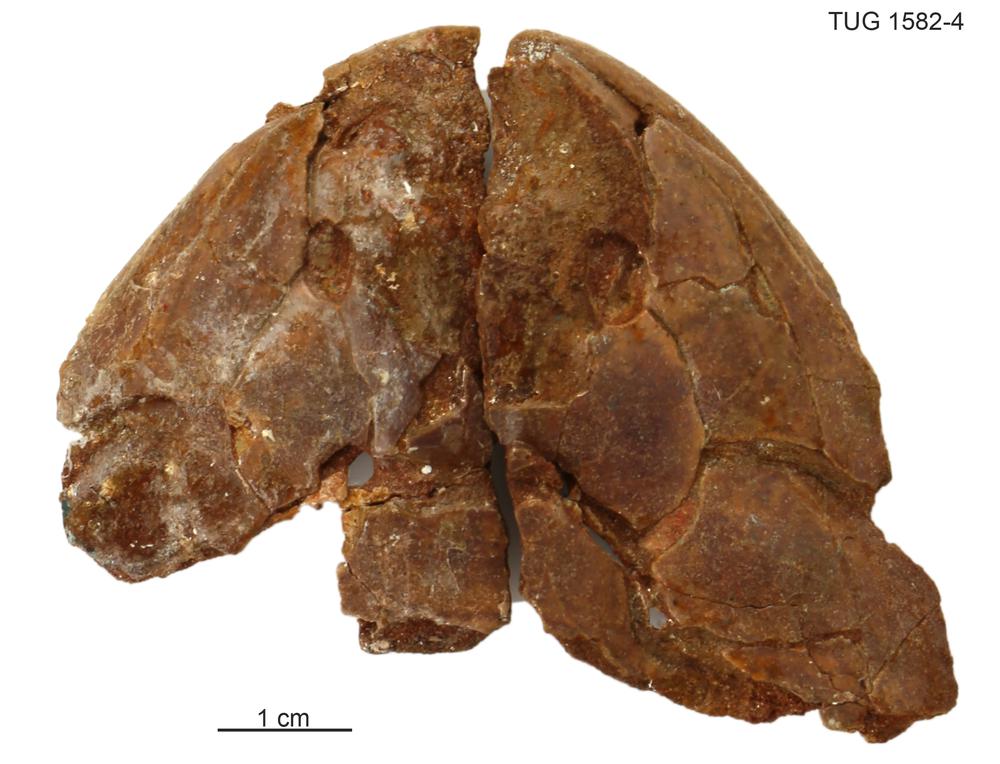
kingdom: Animalia
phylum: Chordata
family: Osteolepididae
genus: Gyroptychius
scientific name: Gyroptychius pauli
